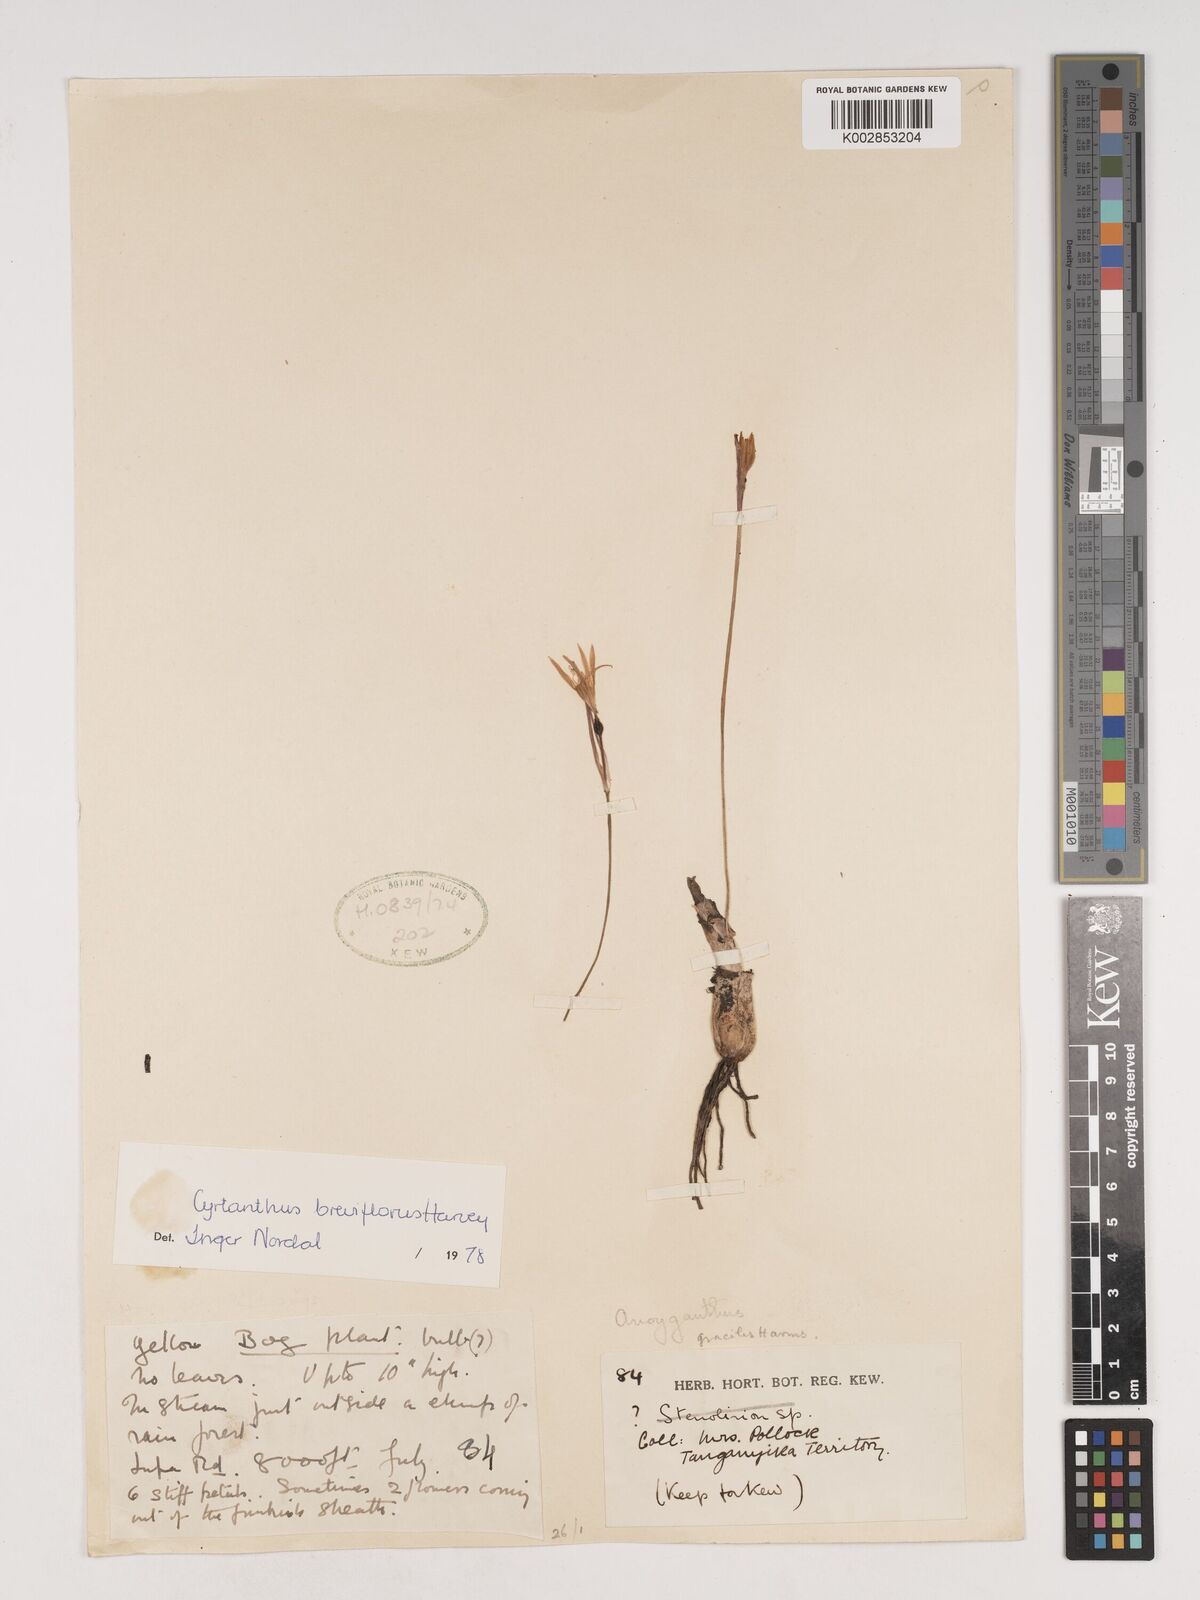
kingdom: Plantae
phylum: Tracheophyta
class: Liliopsida
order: Asparagales
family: Amaryllidaceae
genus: Cyrtanthus
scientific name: Cyrtanthus breviflorus
